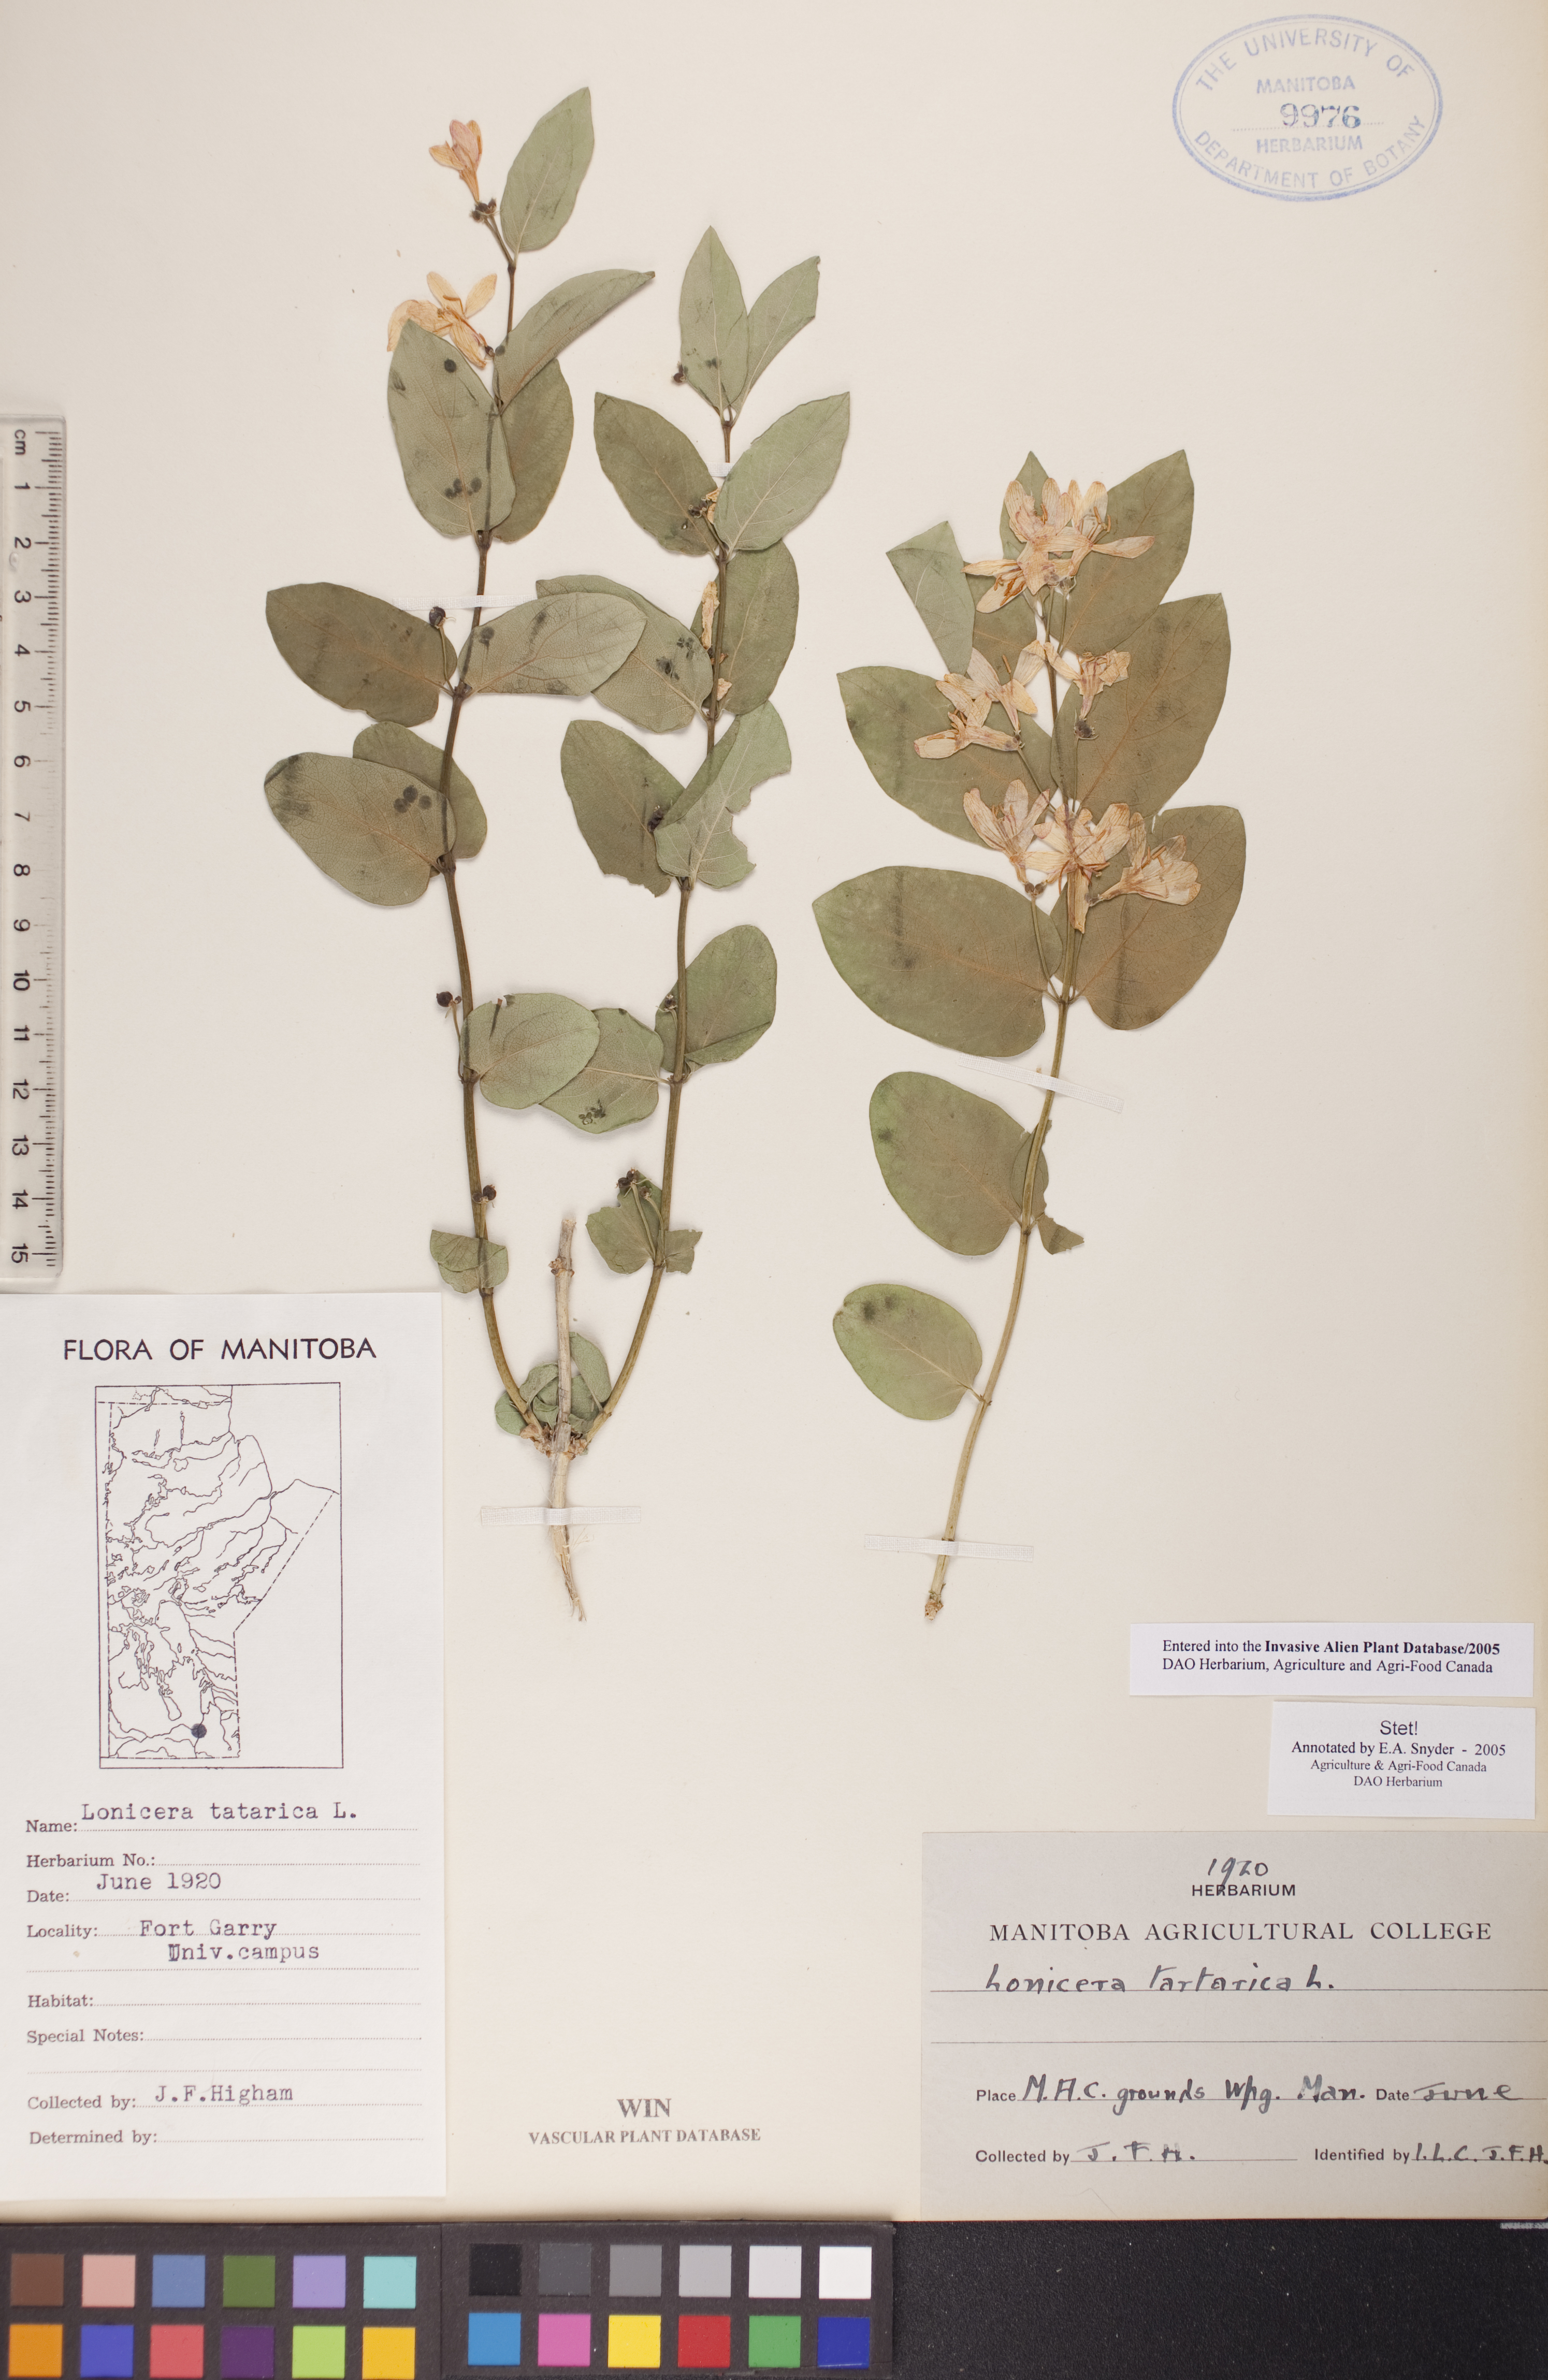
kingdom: Plantae
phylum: Tracheophyta
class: Magnoliopsida
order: Dipsacales
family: Caprifoliaceae
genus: Lonicera
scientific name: Lonicera tatarica
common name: Tatarian honeysuckle
